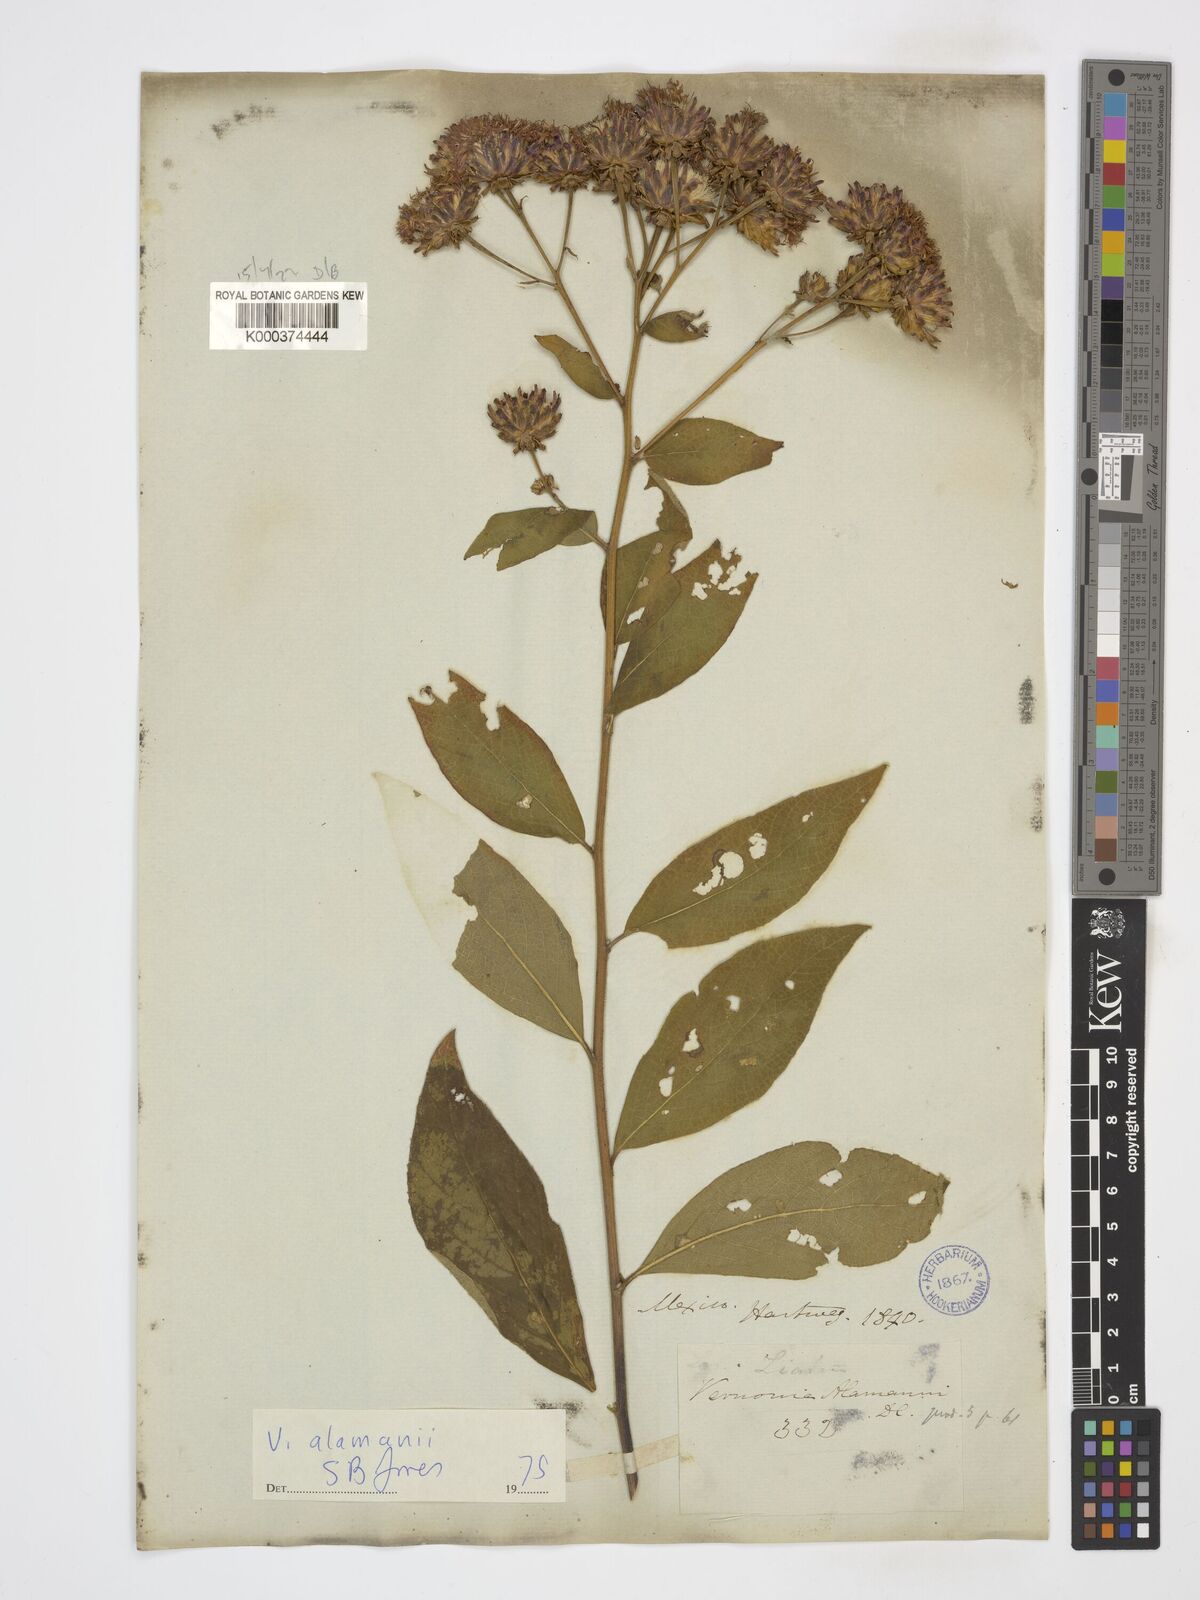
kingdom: Plantae
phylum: Tracheophyta
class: Magnoliopsida
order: Asterales
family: Asteraceae
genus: Vernonanthura
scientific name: Vernonanthura alamanii
